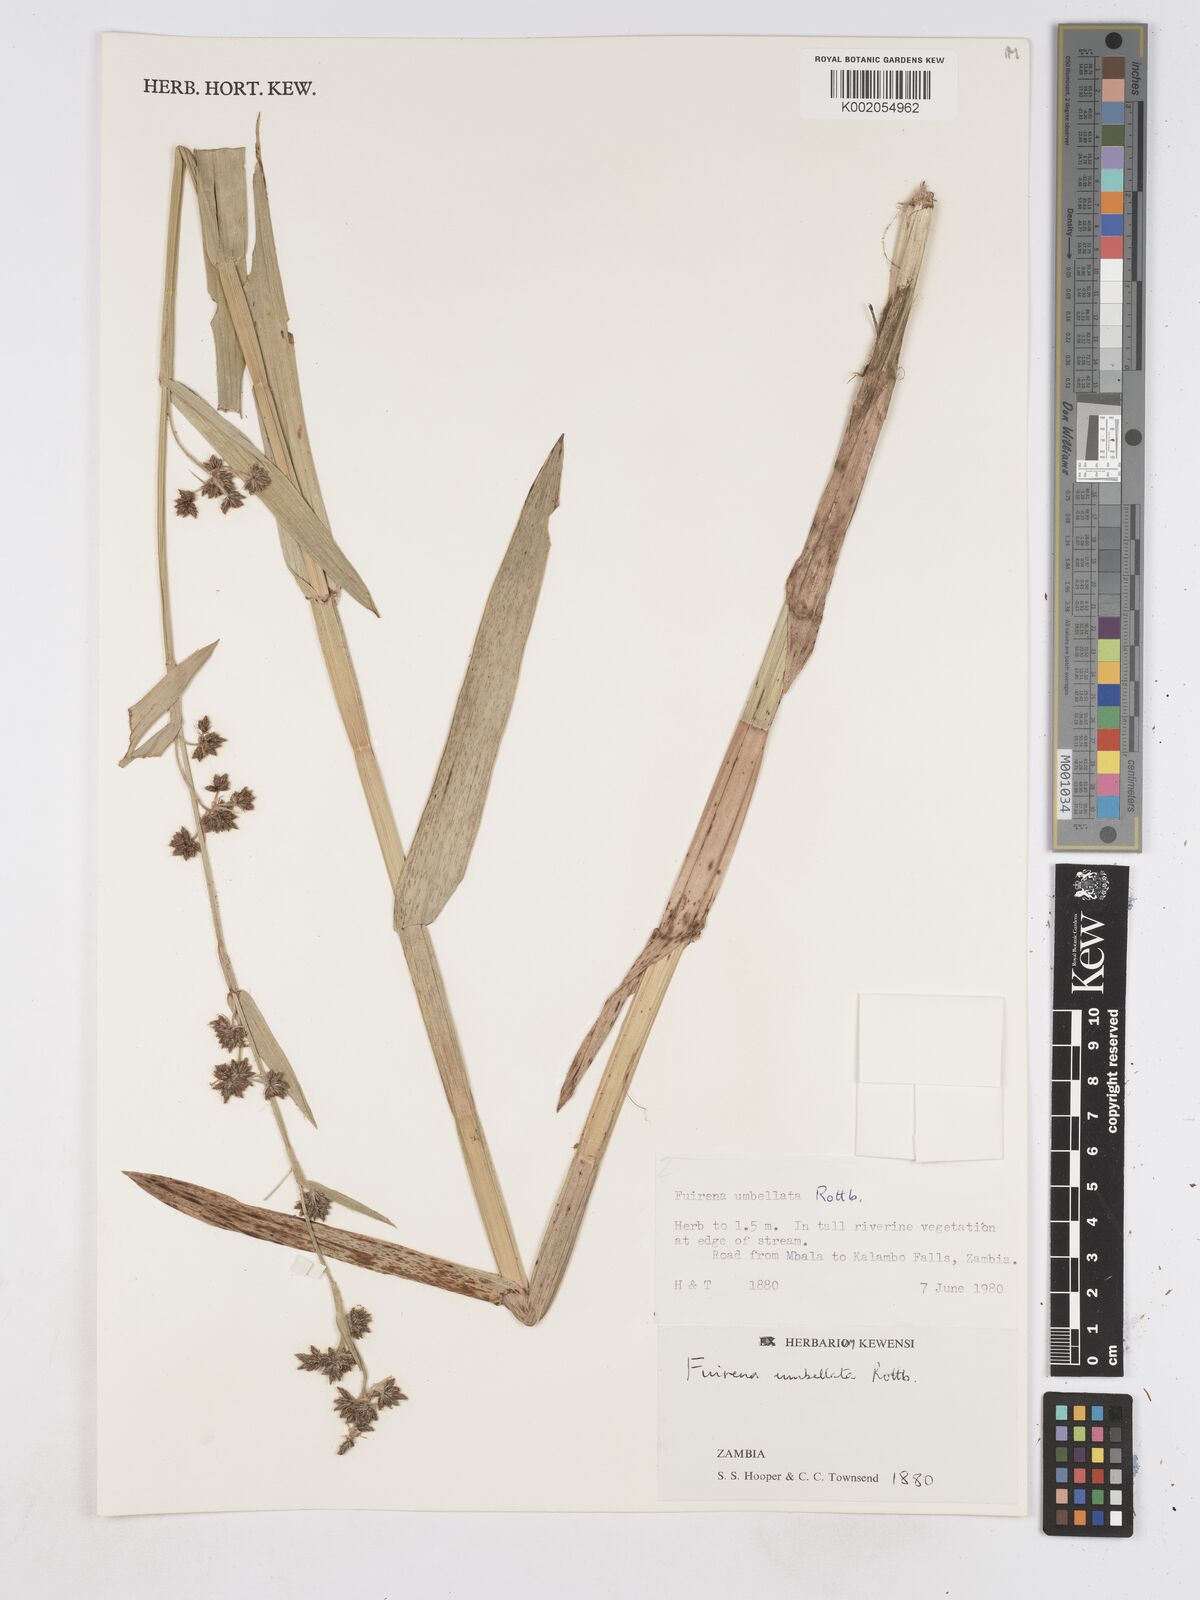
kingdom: Plantae
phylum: Tracheophyta
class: Liliopsida
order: Poales
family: Cyperaceae
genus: Fuirena
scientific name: Fuirena umbellata
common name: Yefen
